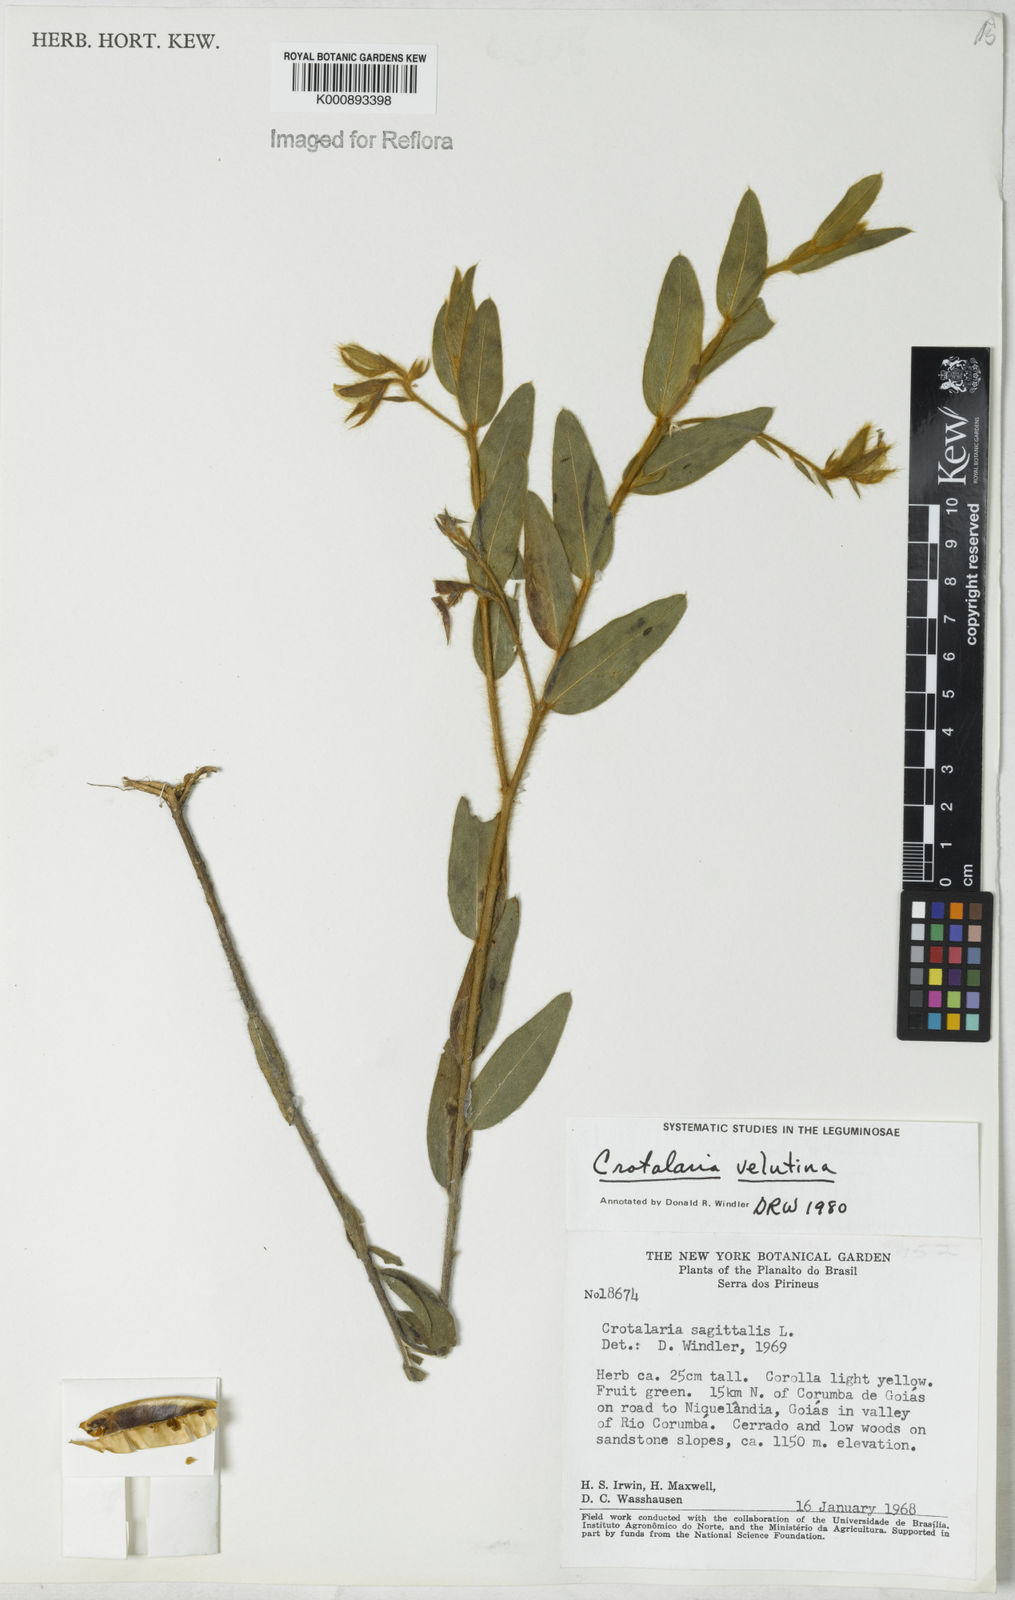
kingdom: Plantae
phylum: Tracheophyta
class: Magnoliopsida
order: Fabales
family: Fabaceae
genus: Crotalaria
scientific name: Crotalaria velutina
